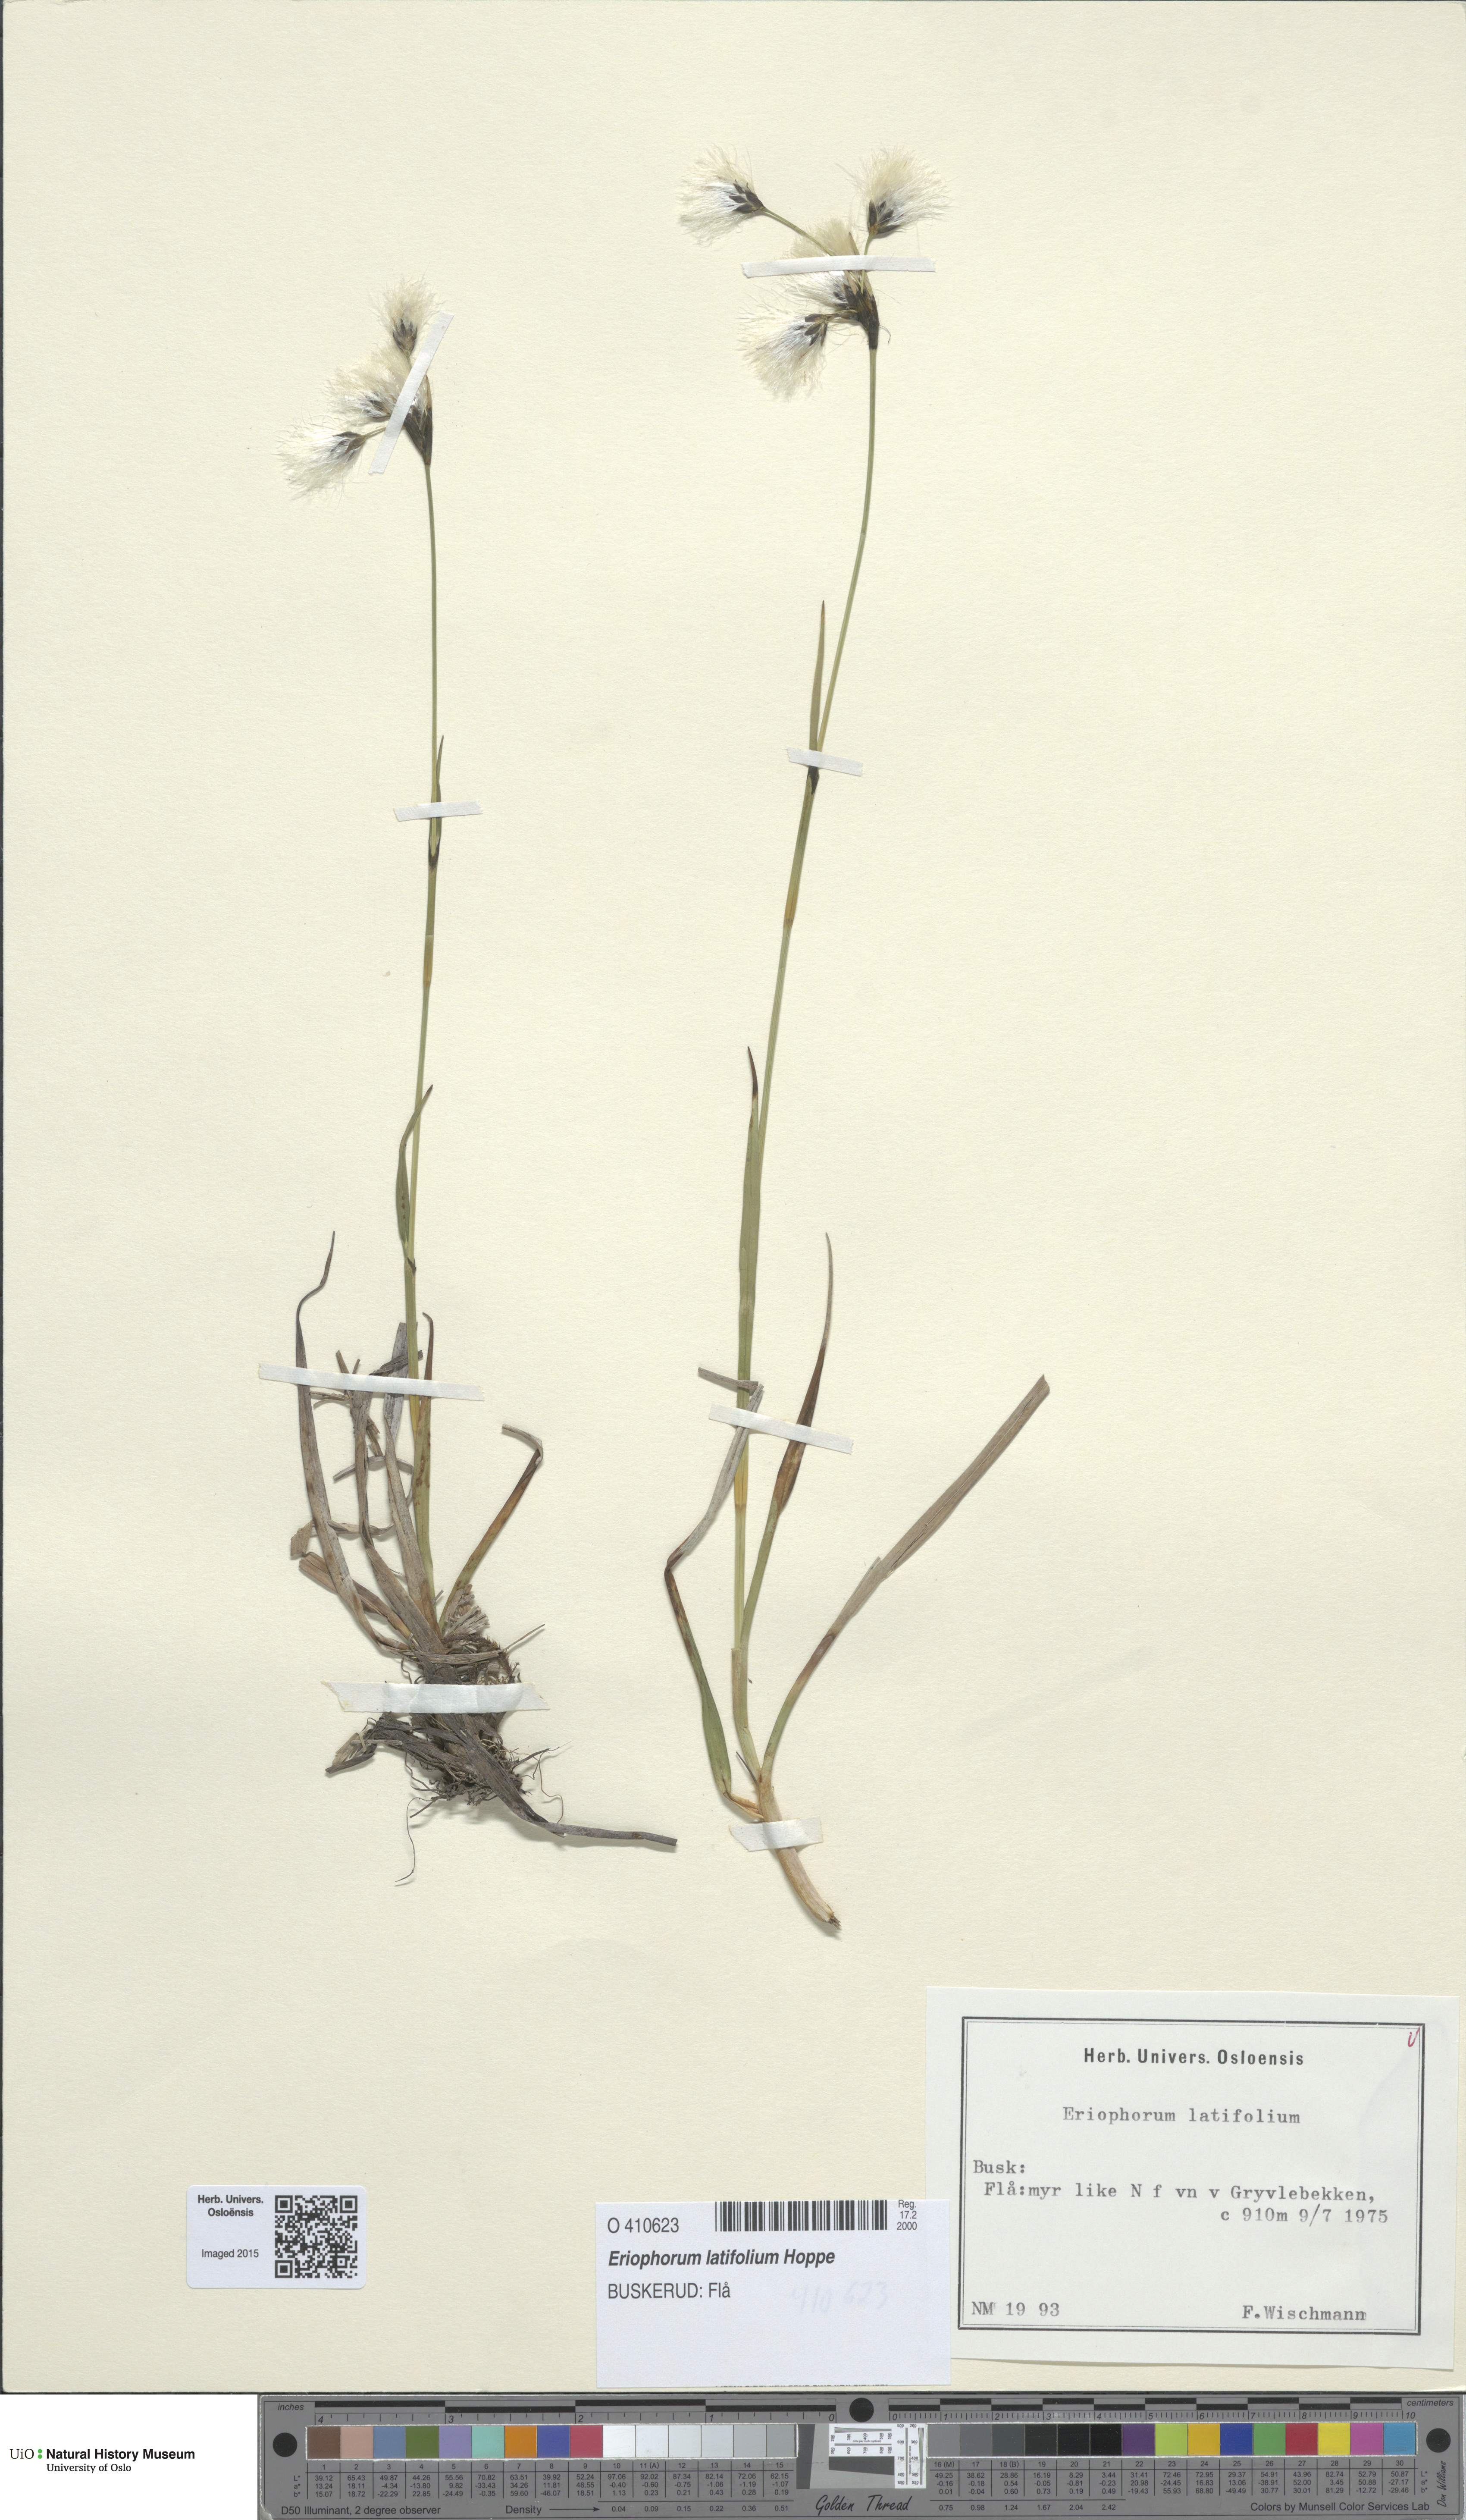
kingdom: Plantae
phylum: Tracheophyta
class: Liliopsida
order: Poales
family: Cyperaceae
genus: Eriophorum
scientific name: Eriophorum latifolium
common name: Broad-leaved cottongrass
